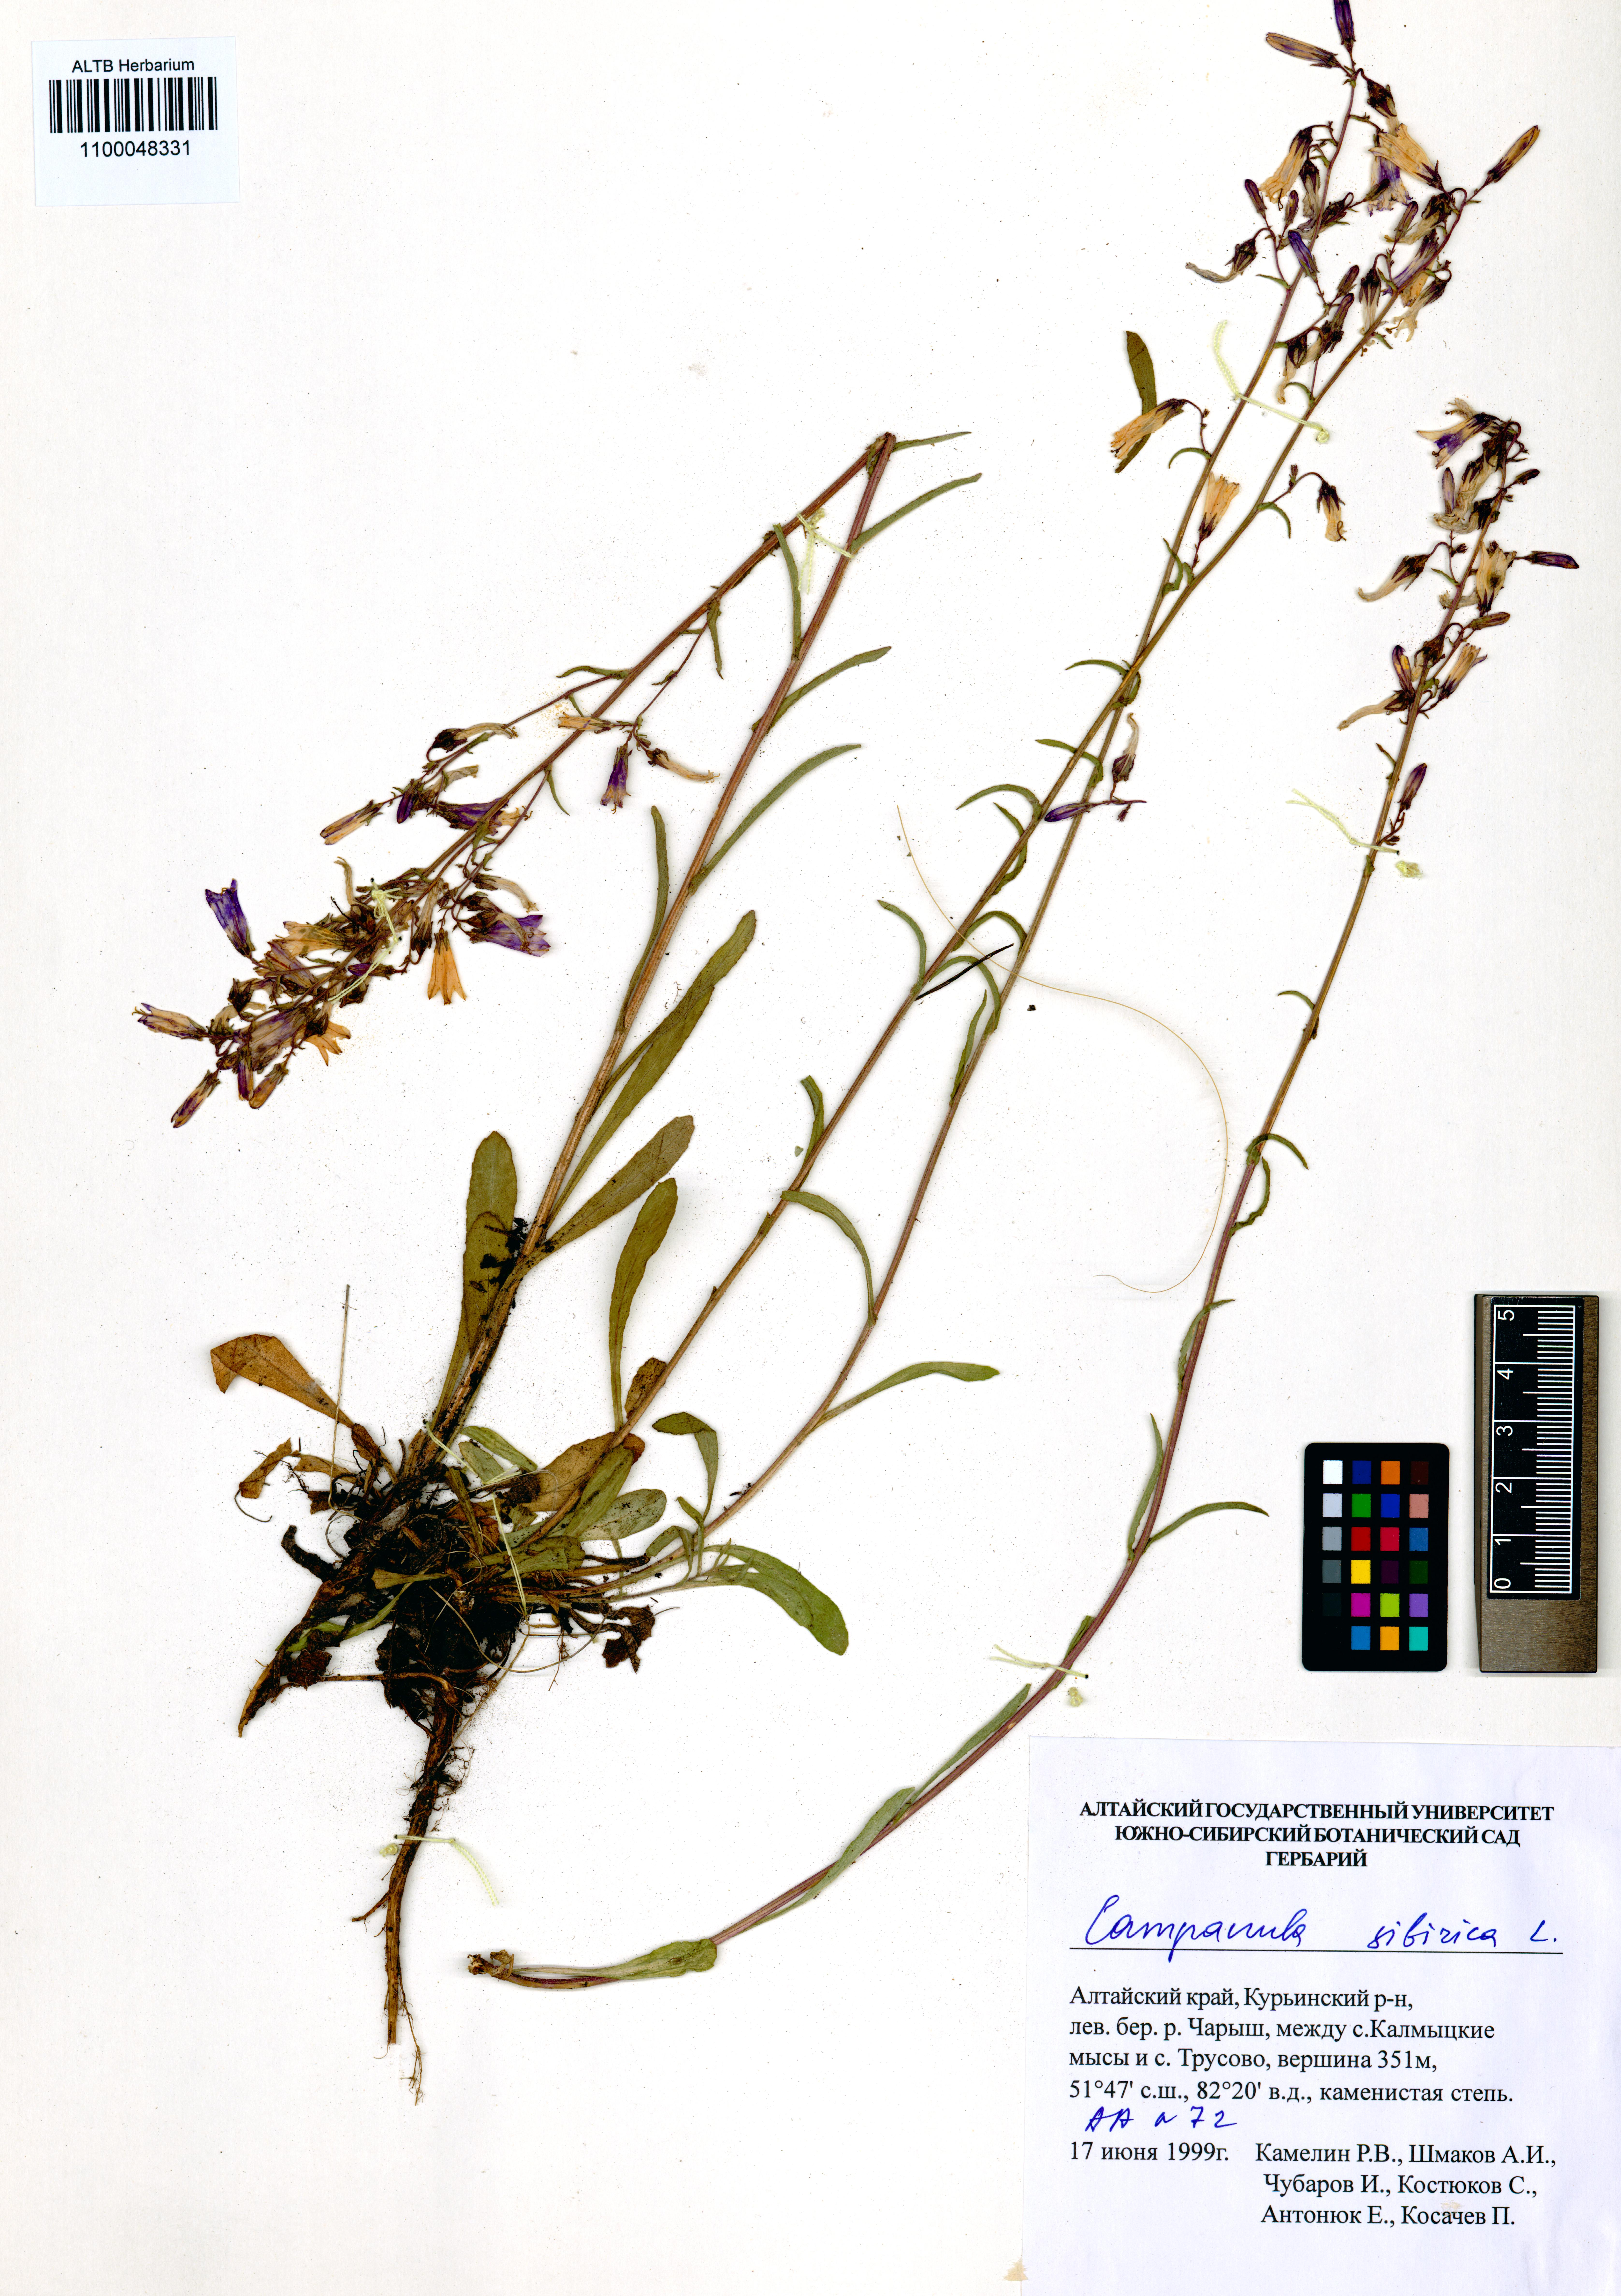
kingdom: Plantae
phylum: Tracheophyta
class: Magnoliopsida
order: Asterales
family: Campanulaceae
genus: Campanula
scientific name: Campanula sibirica
